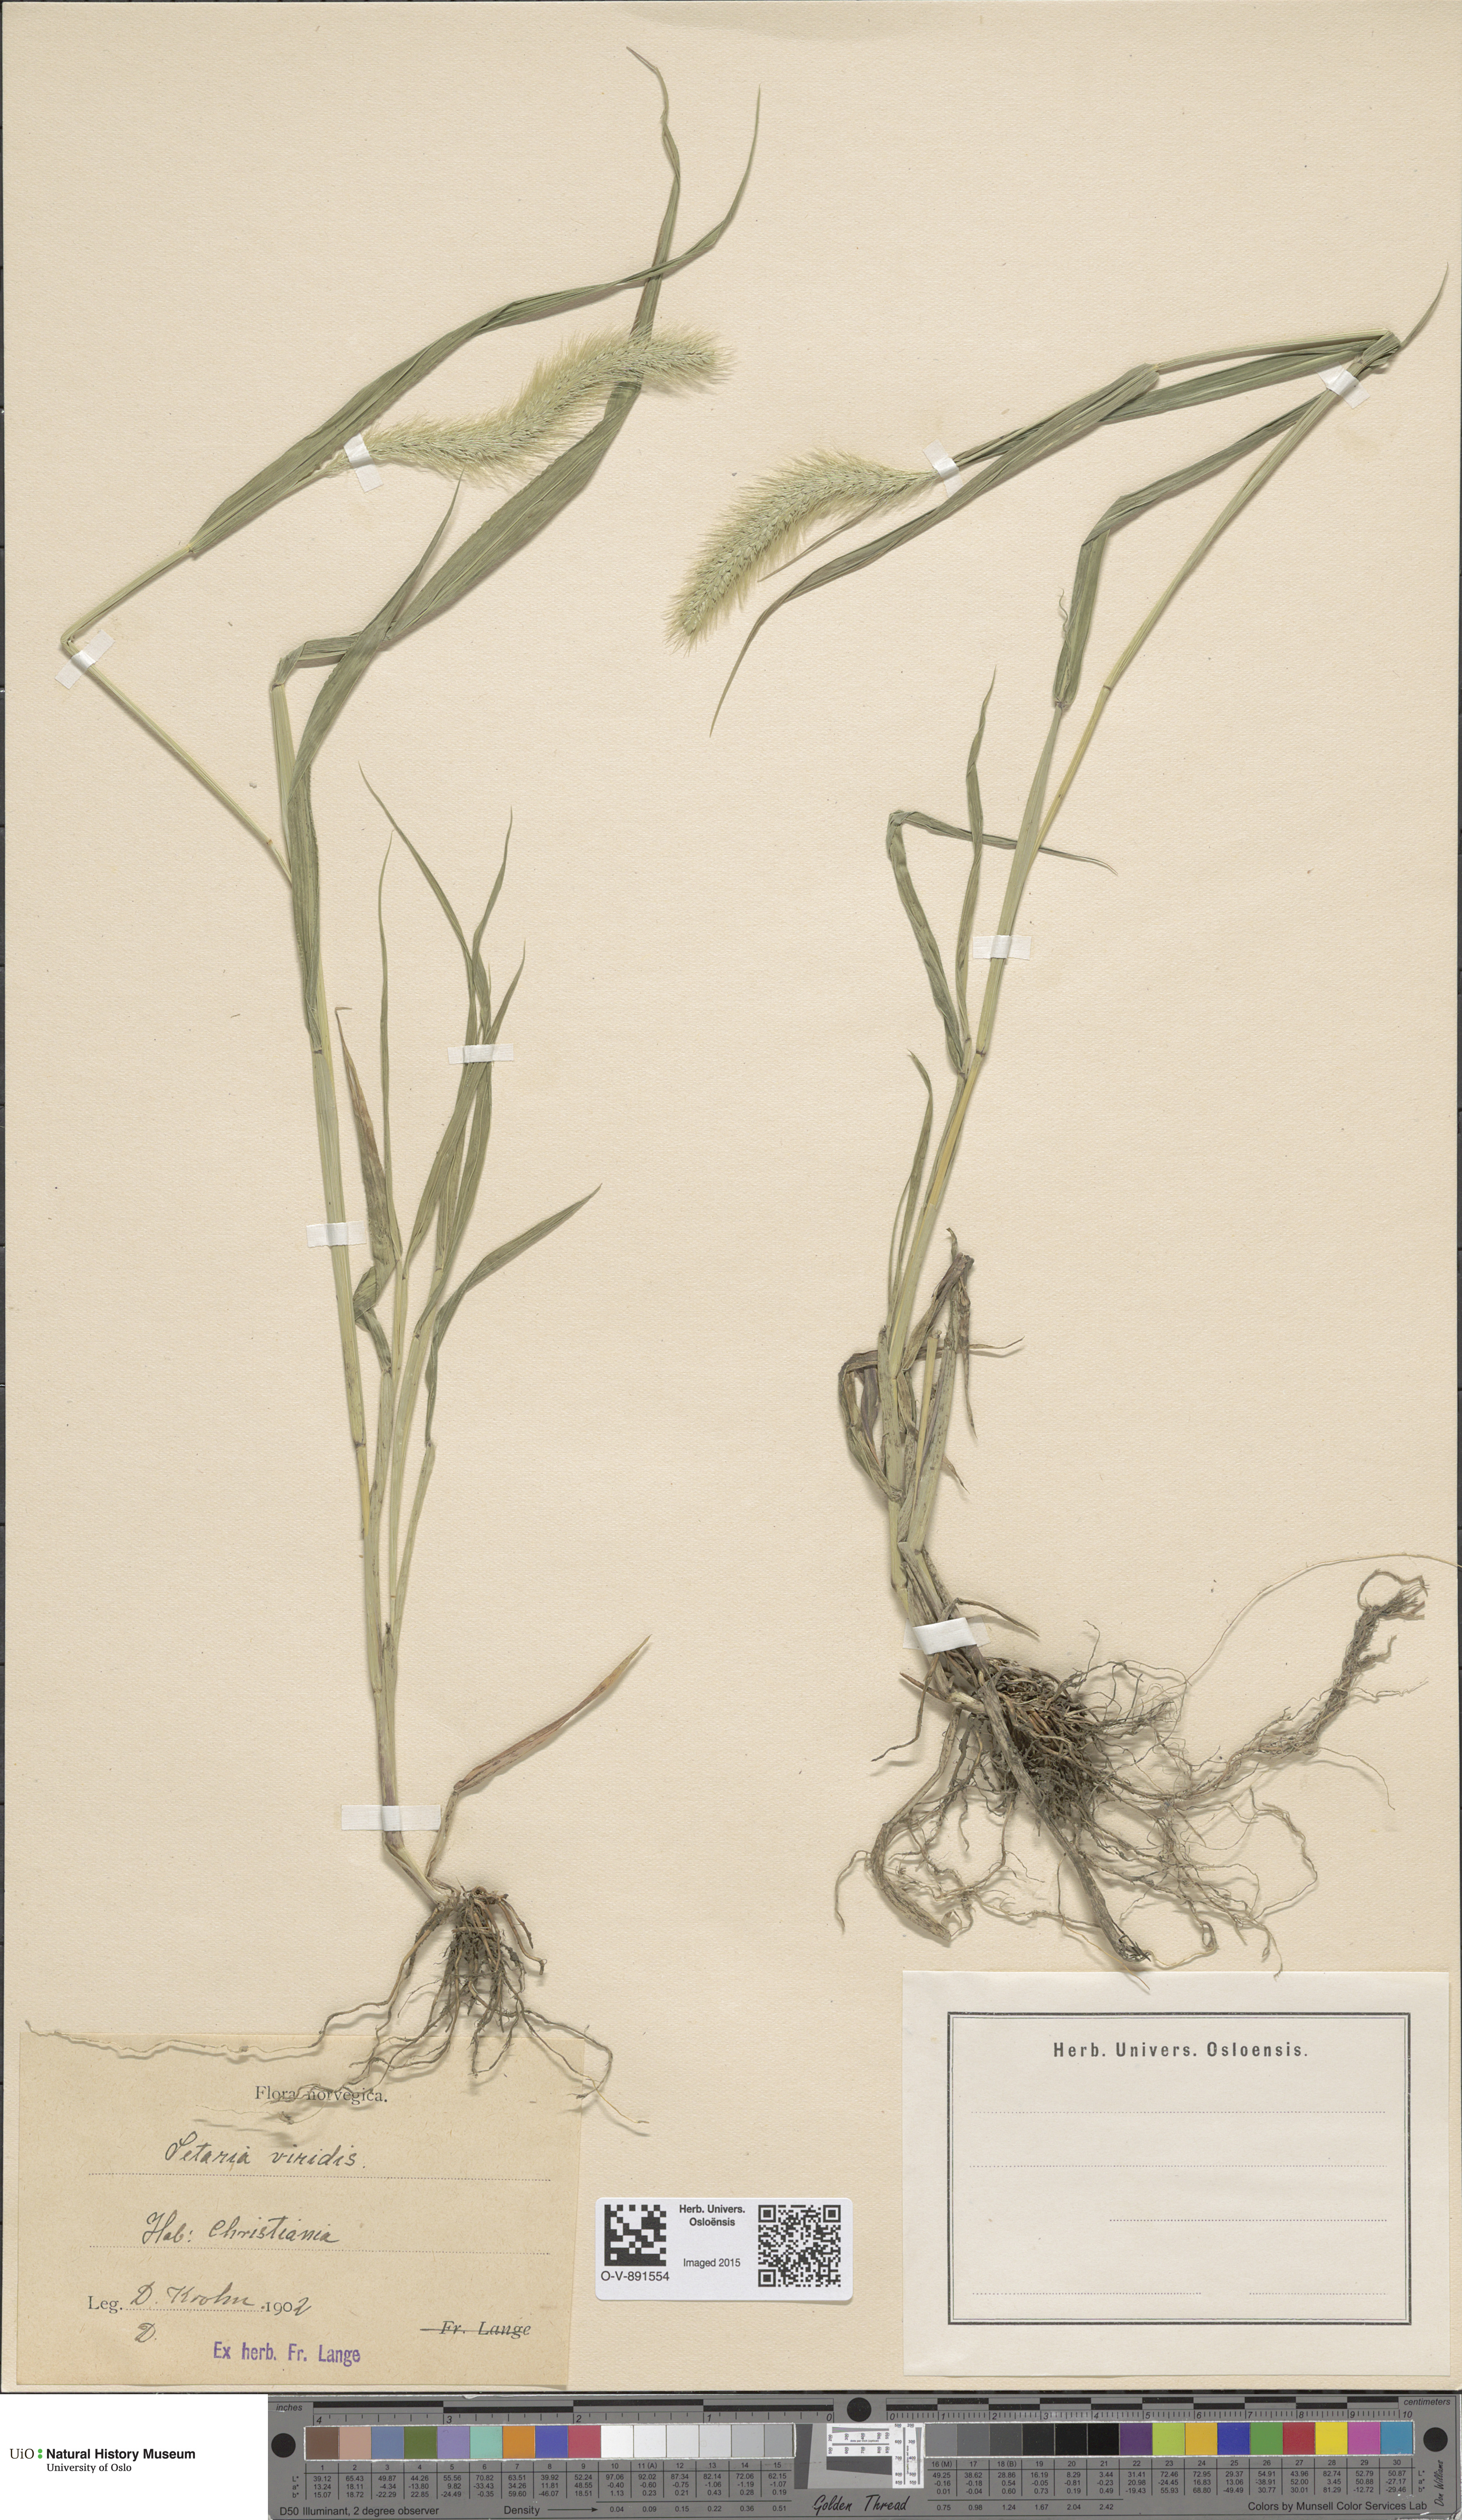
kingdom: Plantae
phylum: Tracheophyta
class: Liliopsida
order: Poales
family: Poaceae
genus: Setaria
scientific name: Setaria viridis
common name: Green bristlegrass
